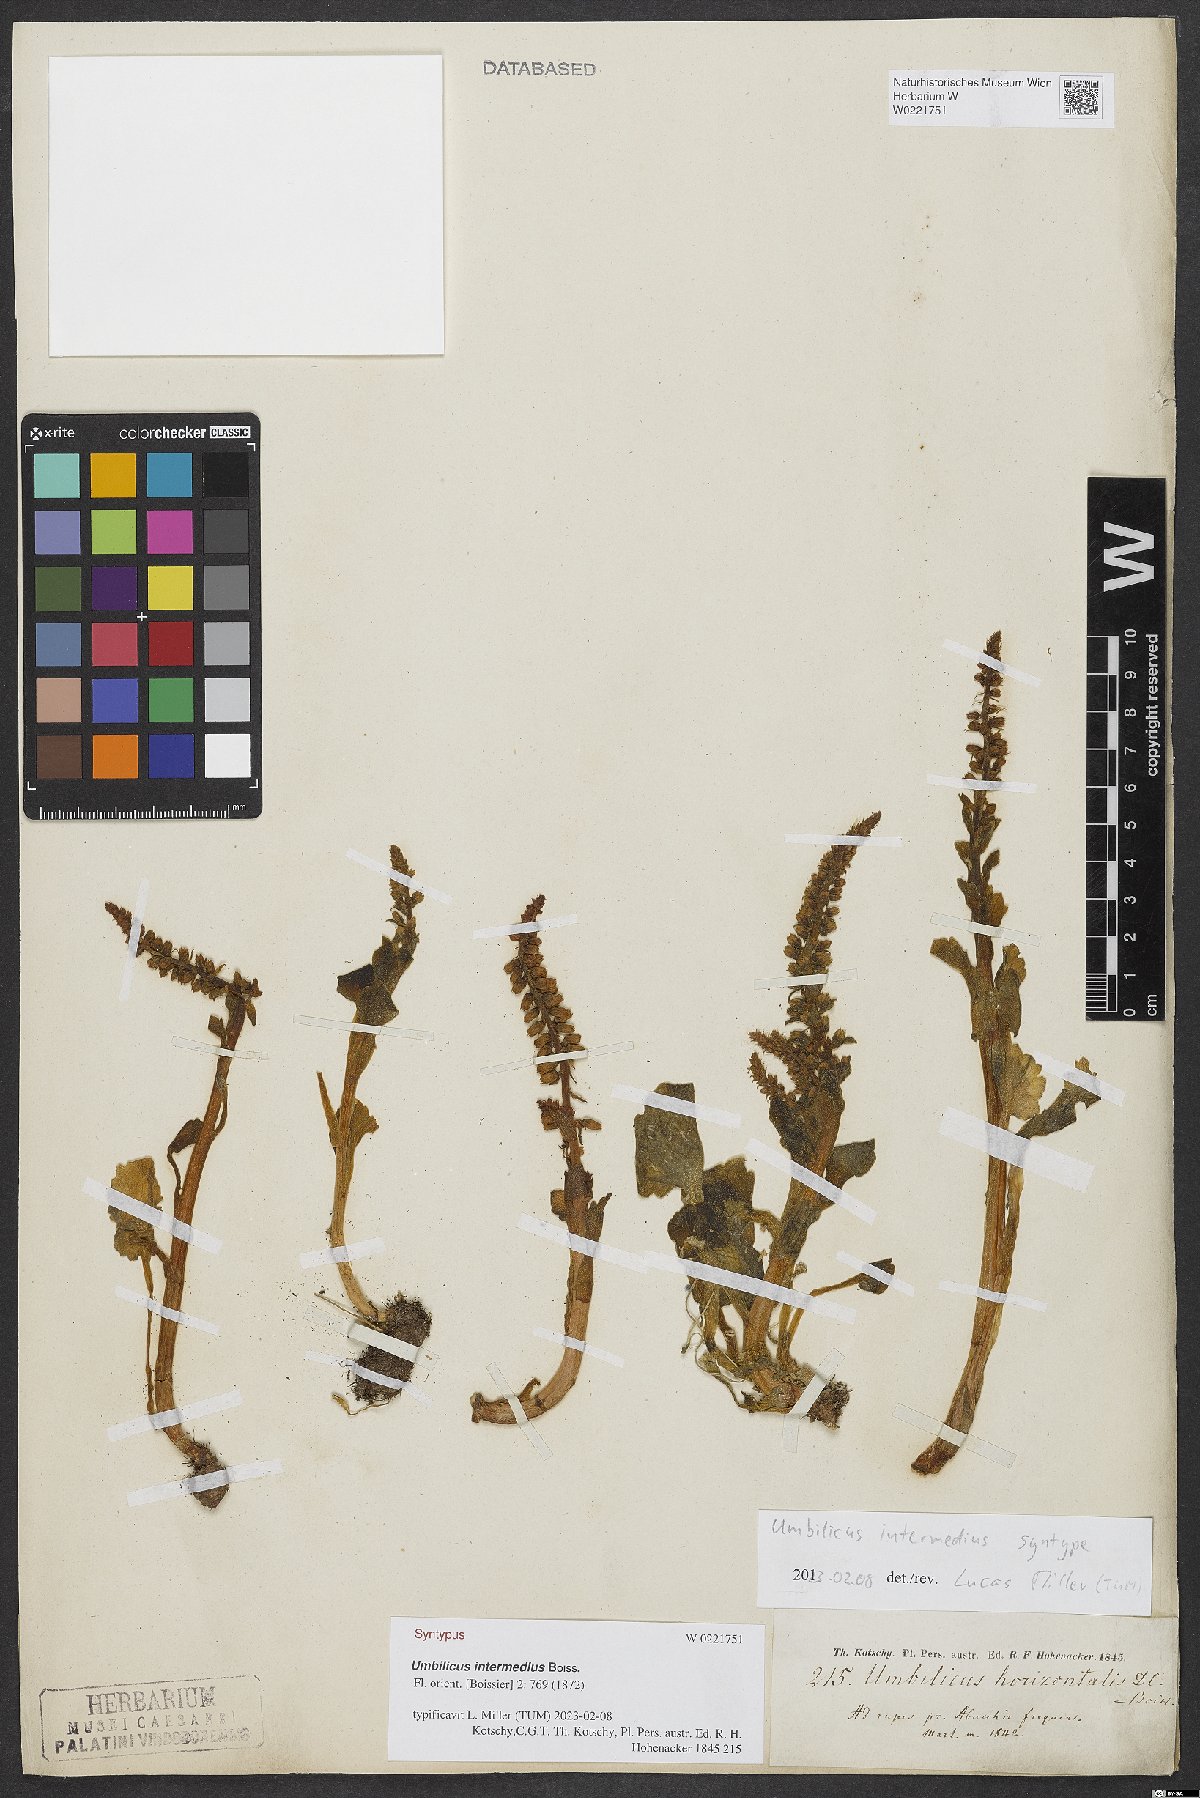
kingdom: Plantae
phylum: Tracheophyta
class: Magnoliopsida
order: Saxifragales
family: Crassulaceae
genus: Umbilicus
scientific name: Umbilicus horizontalis
